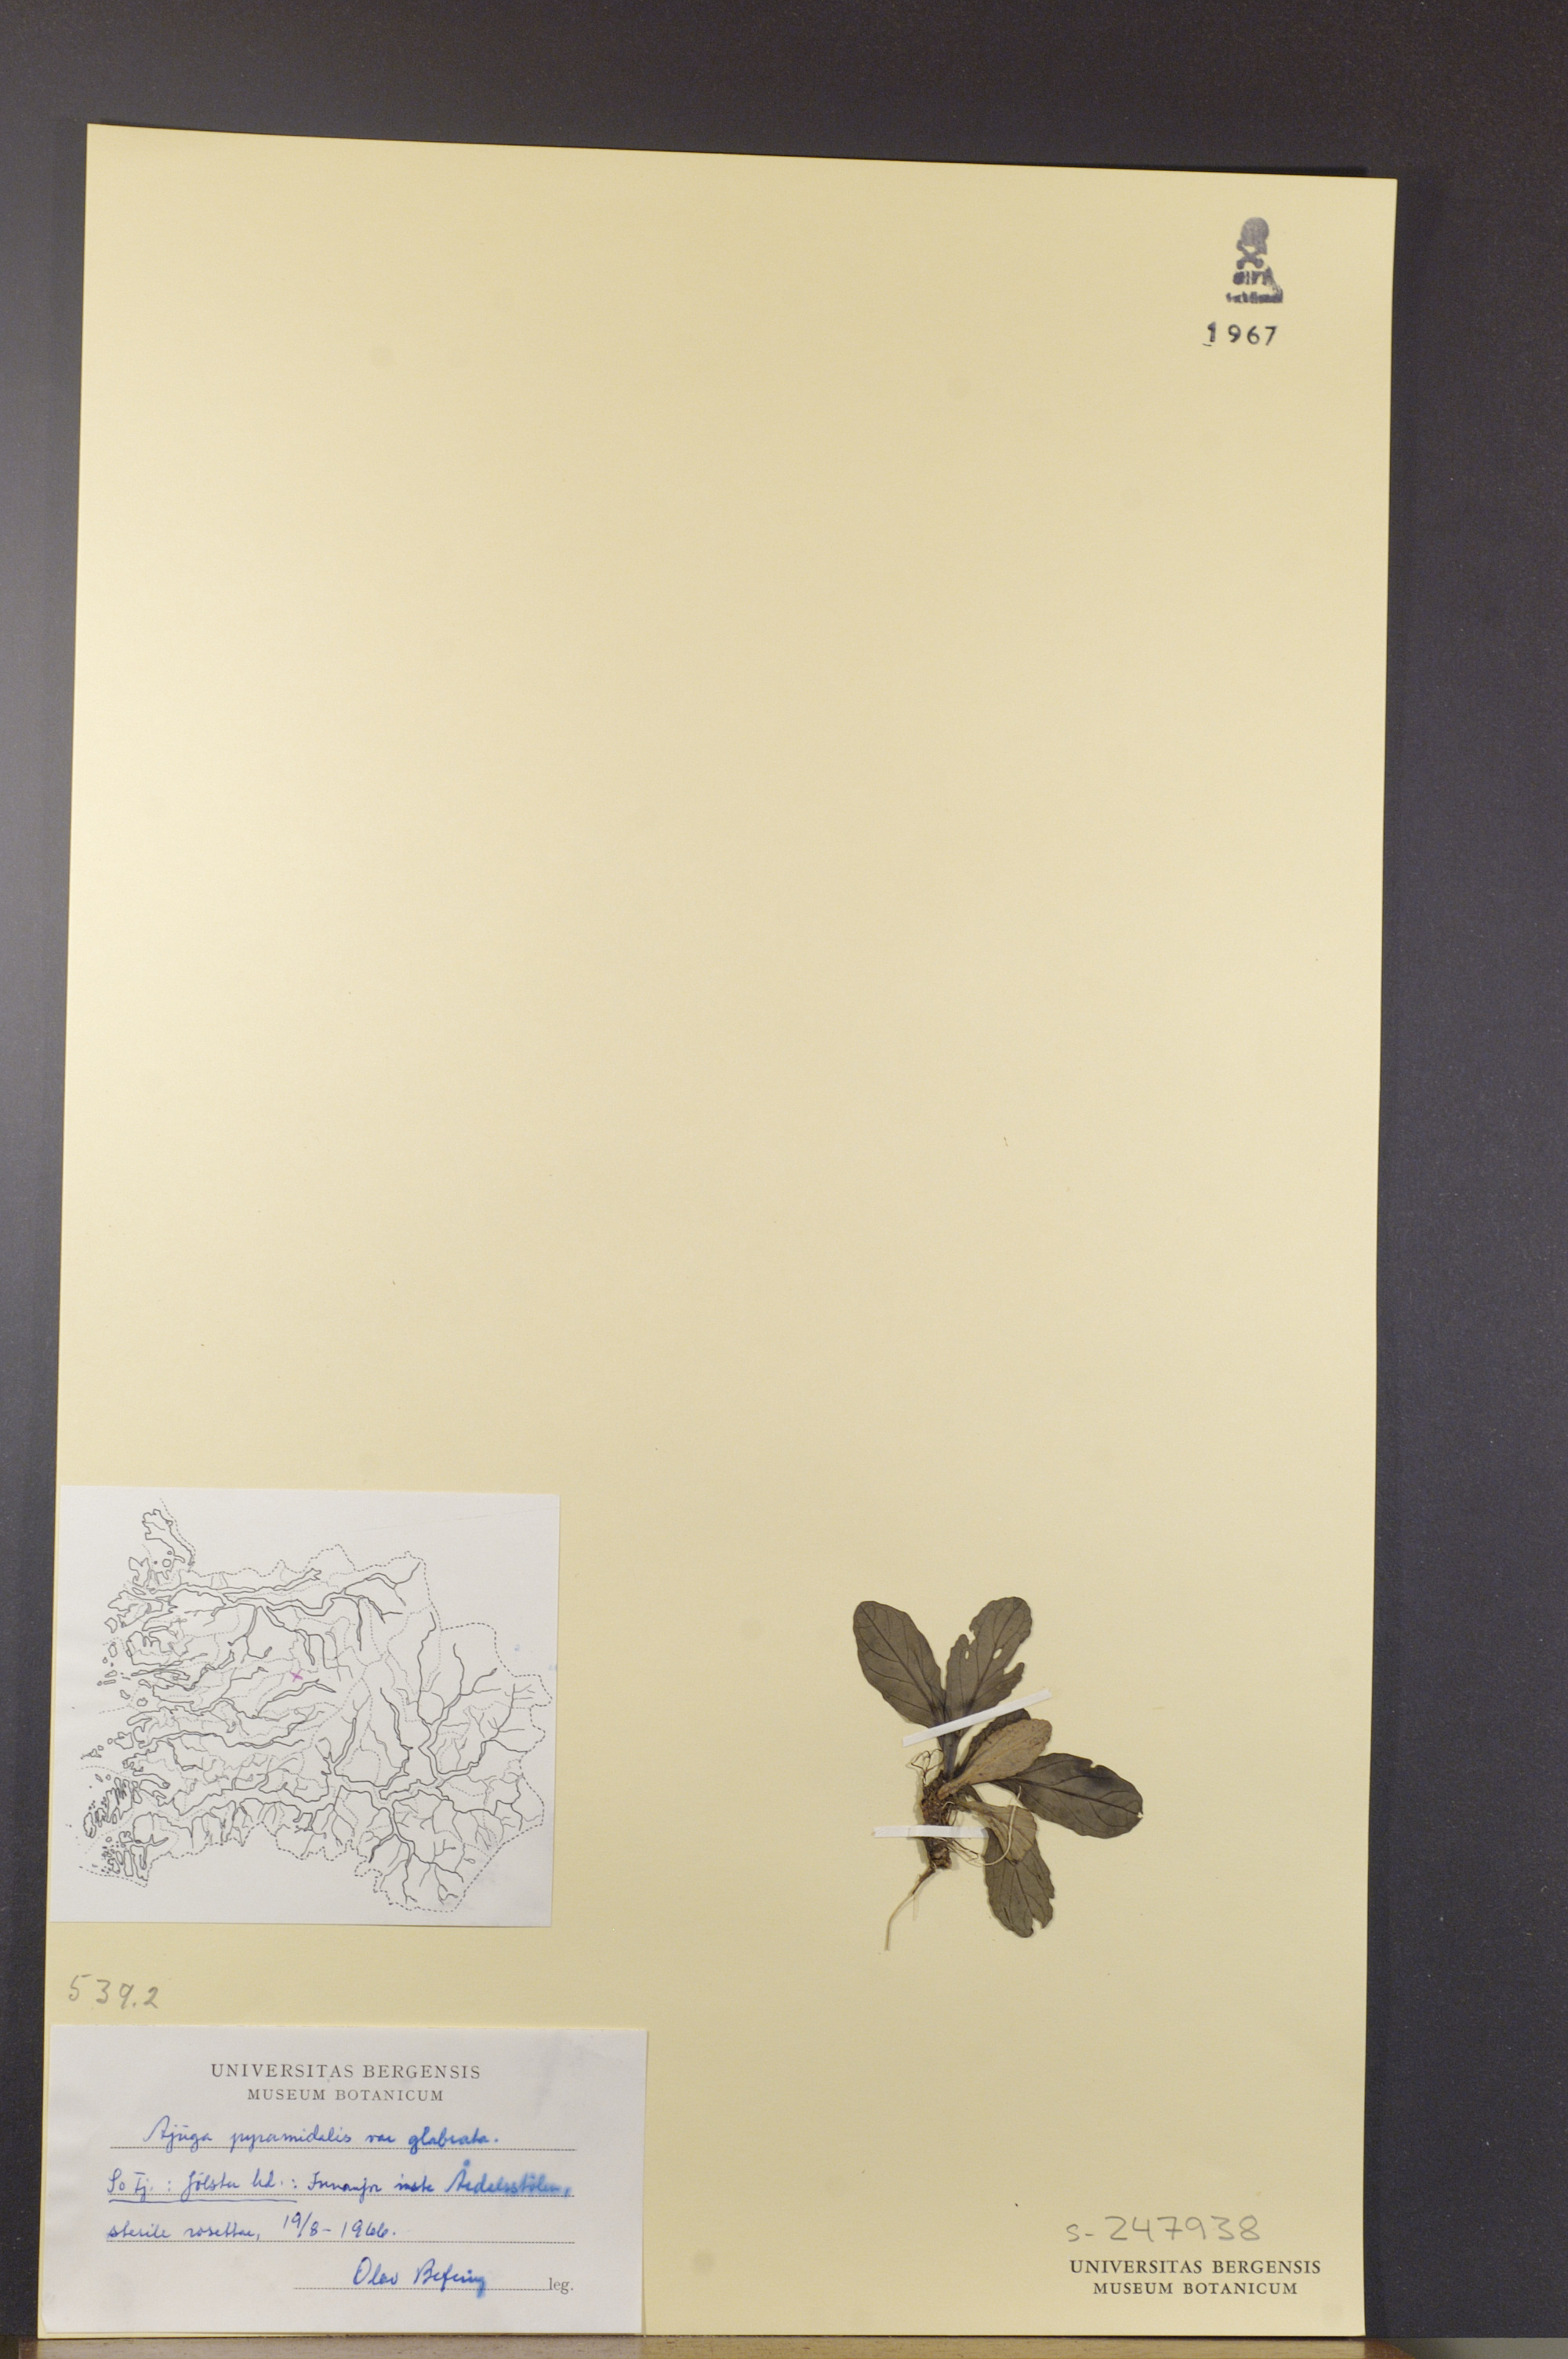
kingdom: Plantae
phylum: Tracheophyta
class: Magnoliopsida
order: Lamiales
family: Lamiaceae
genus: Ajuga
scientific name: Ajuga pyramidalis
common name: Pyramid bugle
